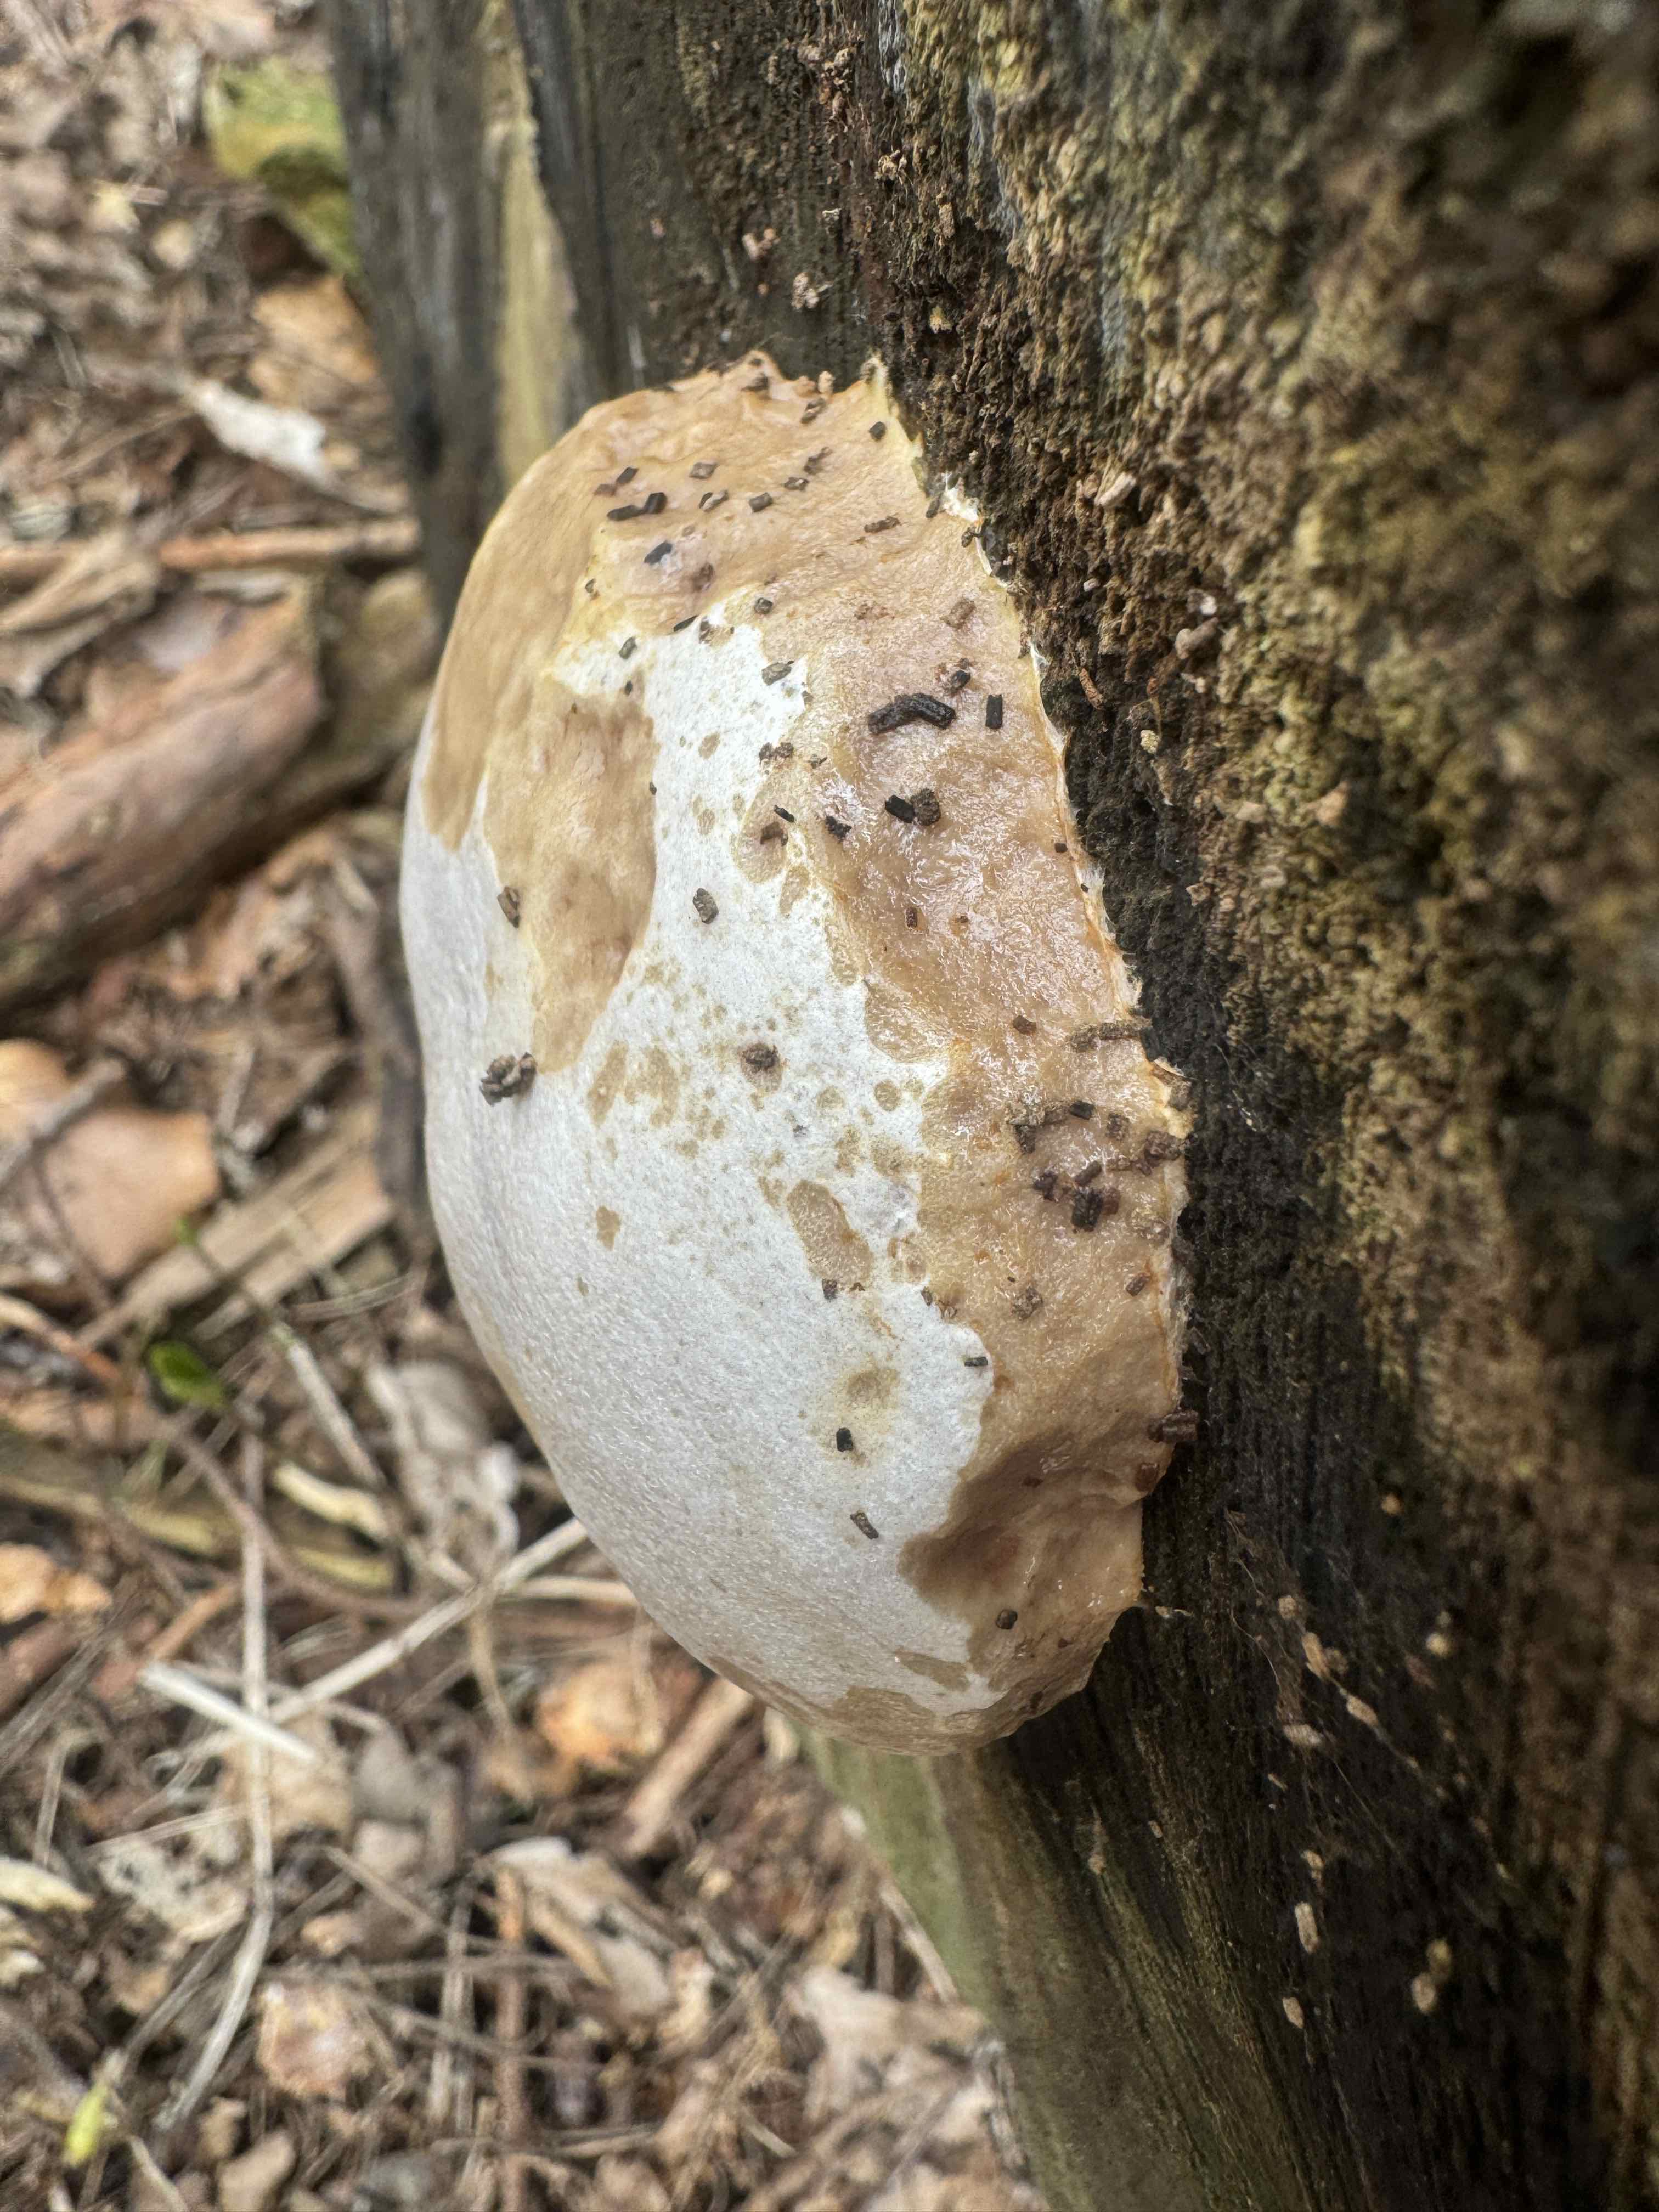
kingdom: Protozoa
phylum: Mycetozoa
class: Myxomycetes
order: Cribrariales
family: Tubiferaceae
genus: Reticularia
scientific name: Reticularia lycoperdon
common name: skinnende støvpude
